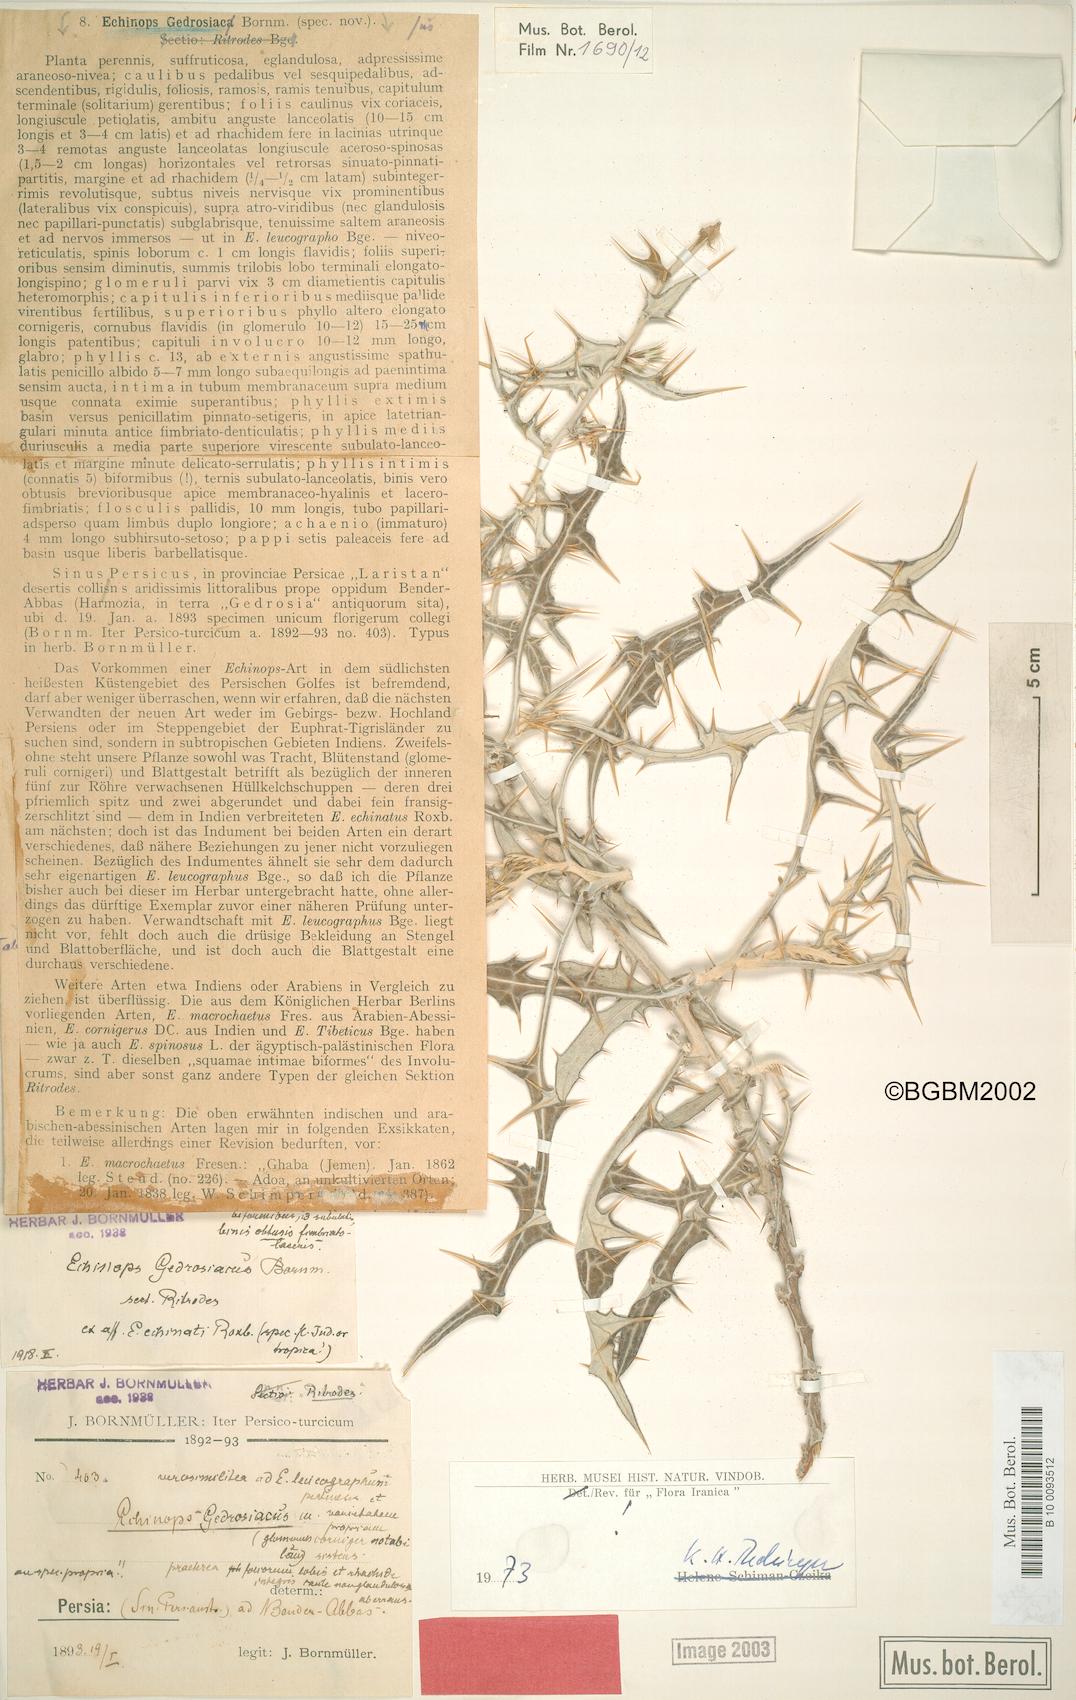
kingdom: Plantae
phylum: Tracheophyta
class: Magnoliopsida
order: Asterales
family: Asteraceae
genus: Echinops
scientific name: Echinops gedrosiacus
